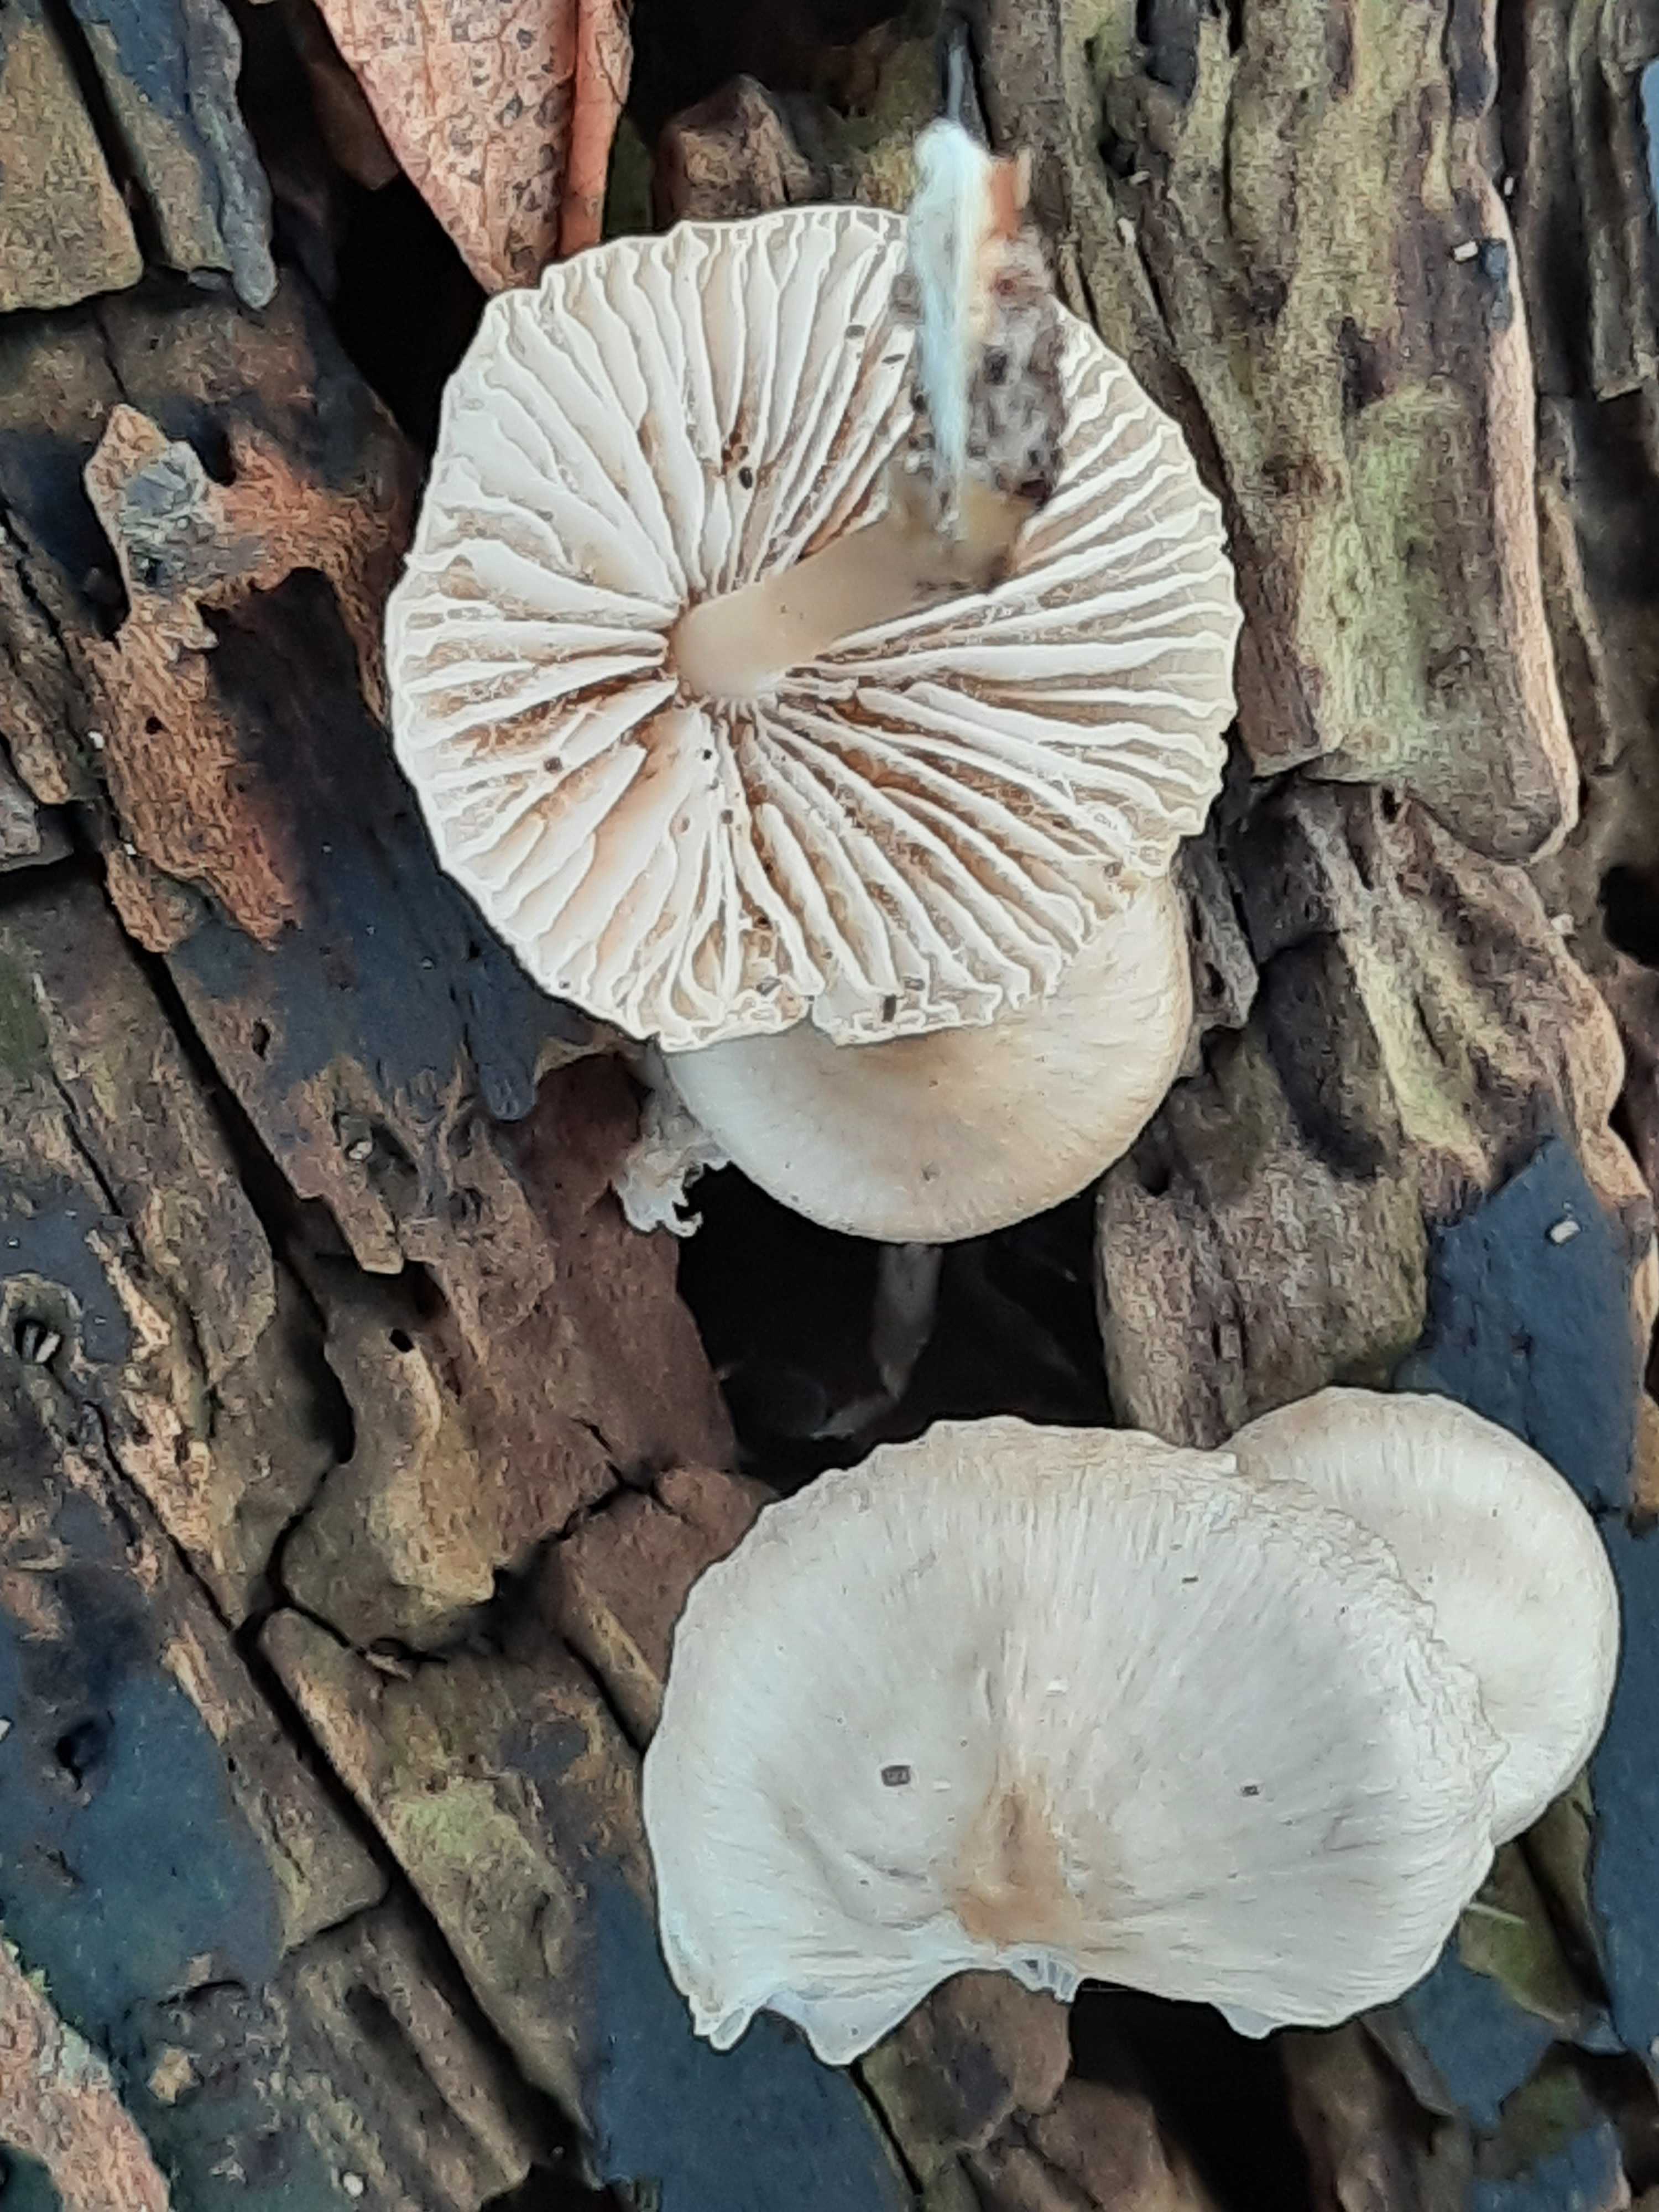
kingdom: Fungi
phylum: Basidiomycota
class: Agaricomycetes
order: Agaricales
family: Mycenaceae
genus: Mycena
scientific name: Mycena galericulata
